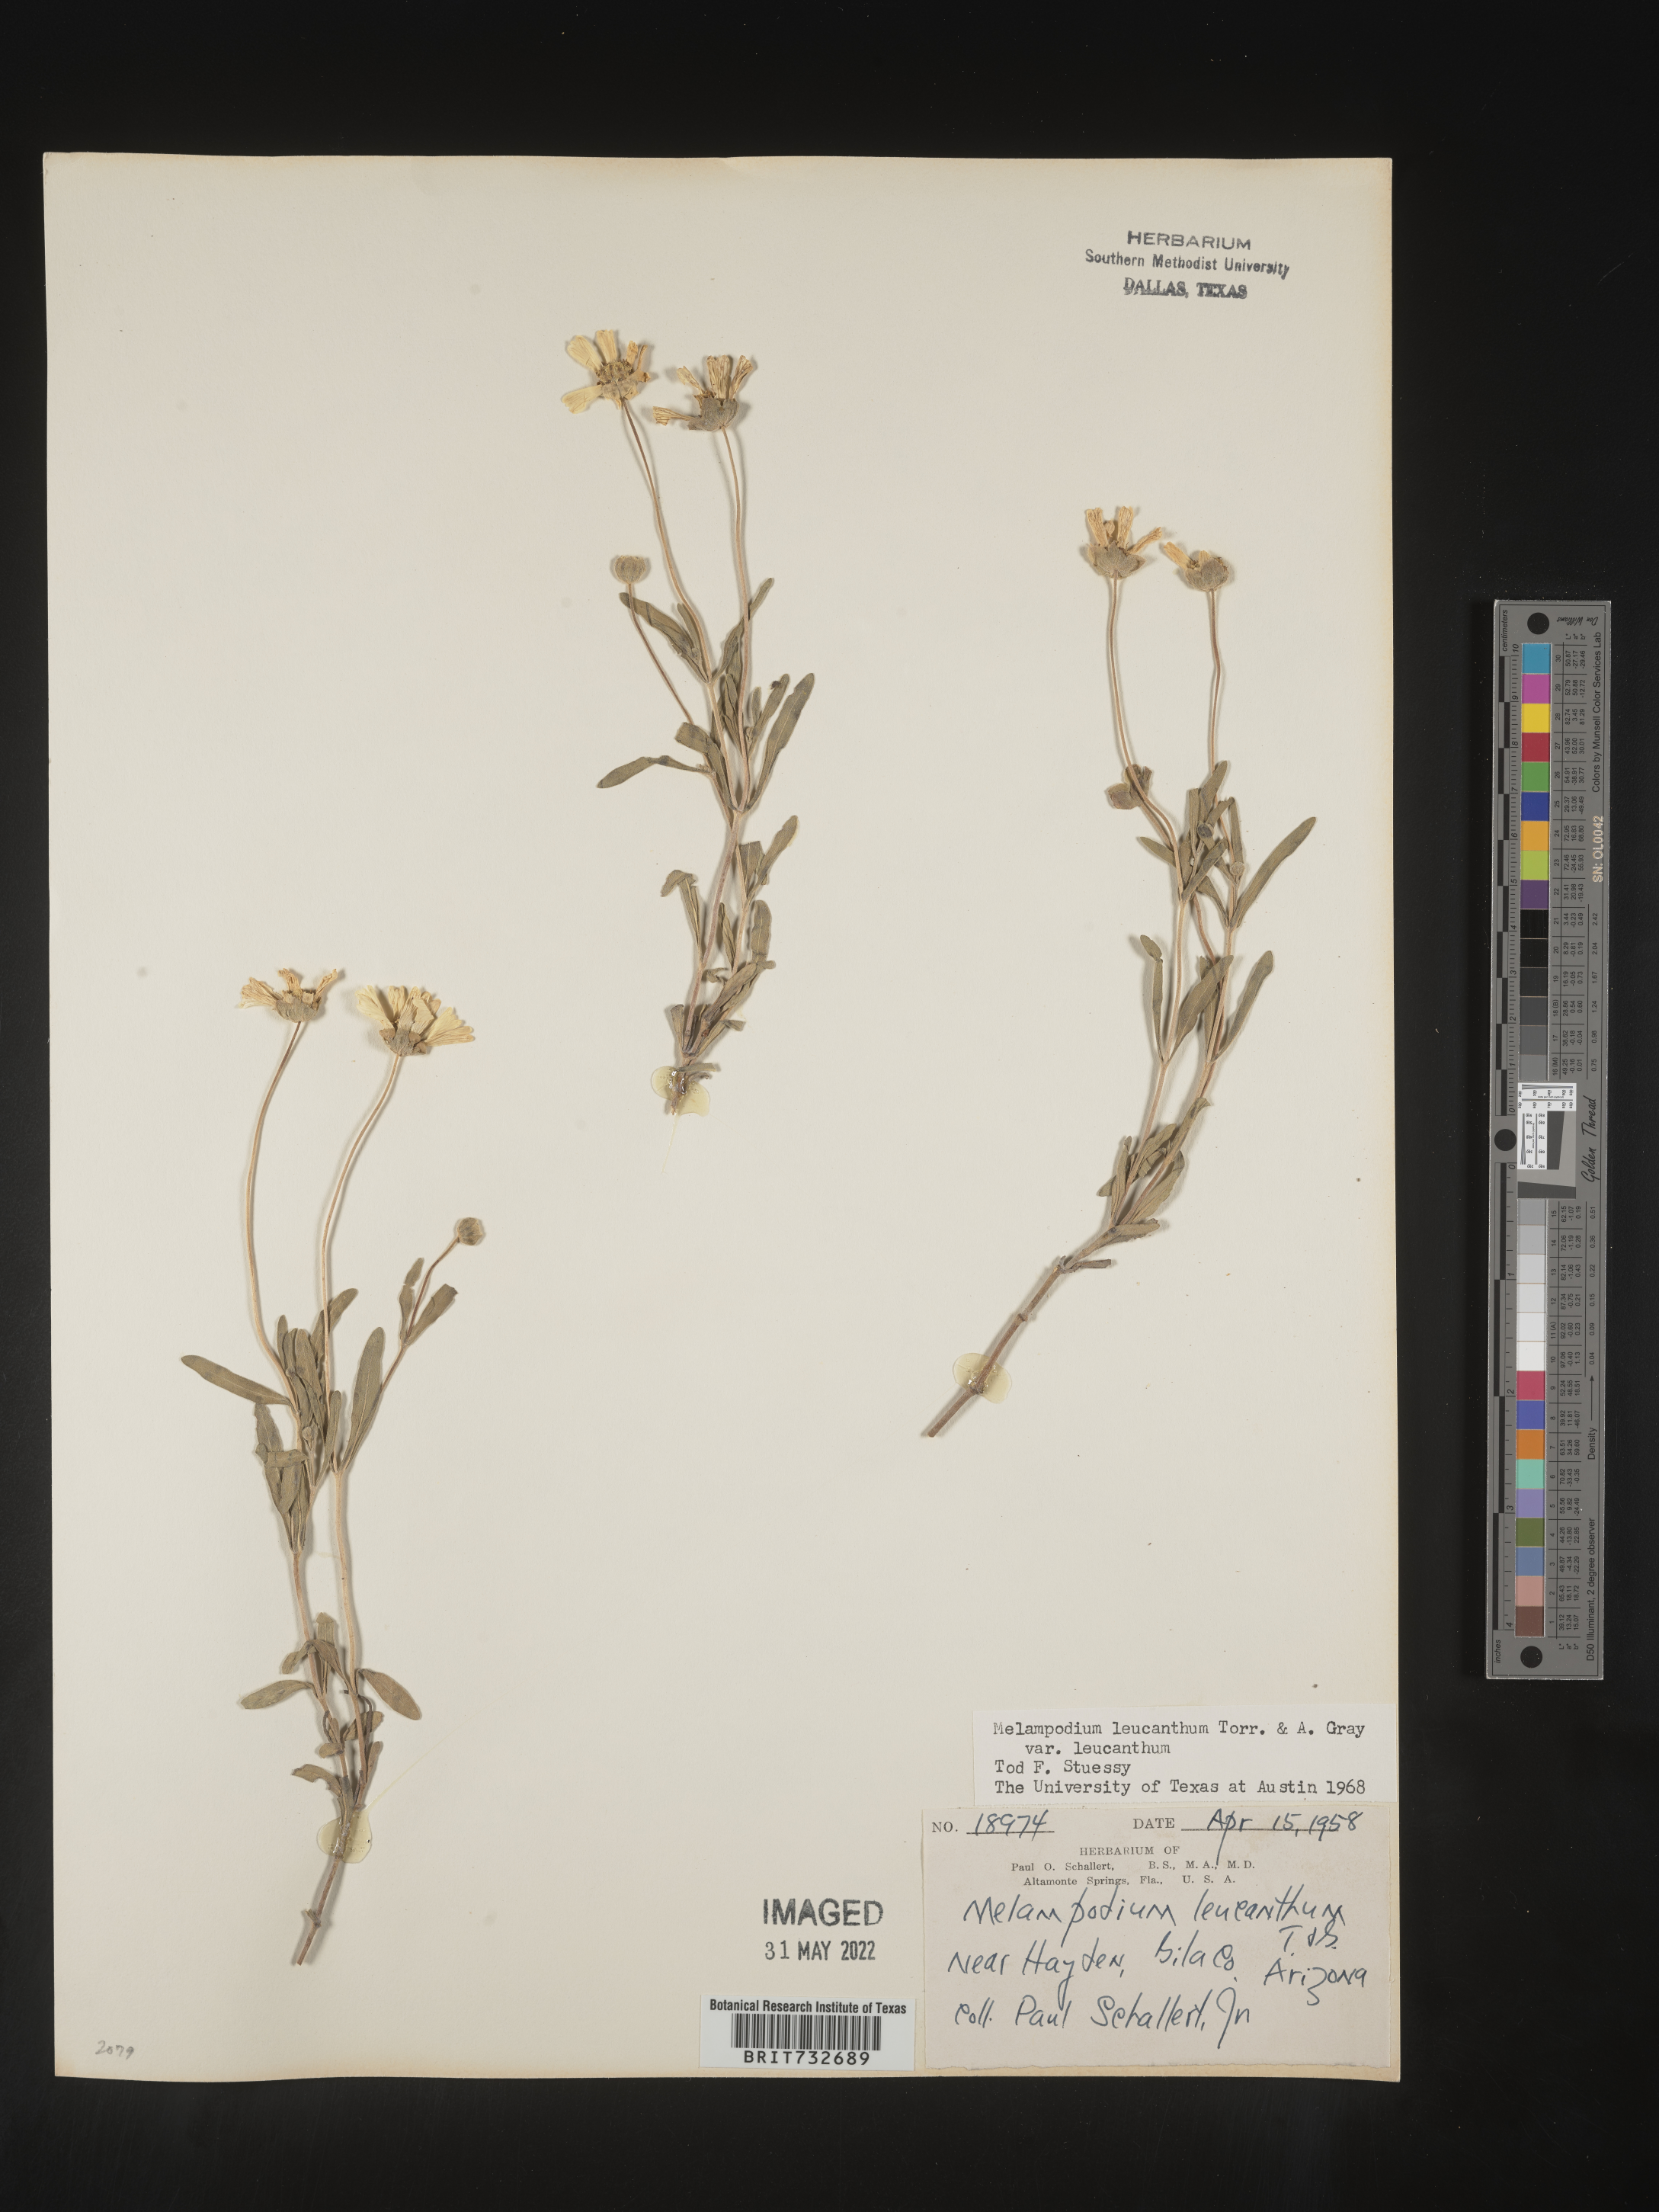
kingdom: Plantae
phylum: Tracheophyta
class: Magnoliopsida
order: Asterales
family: Asteraceae
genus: Melampodium
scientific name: Melampodium leucanthum
